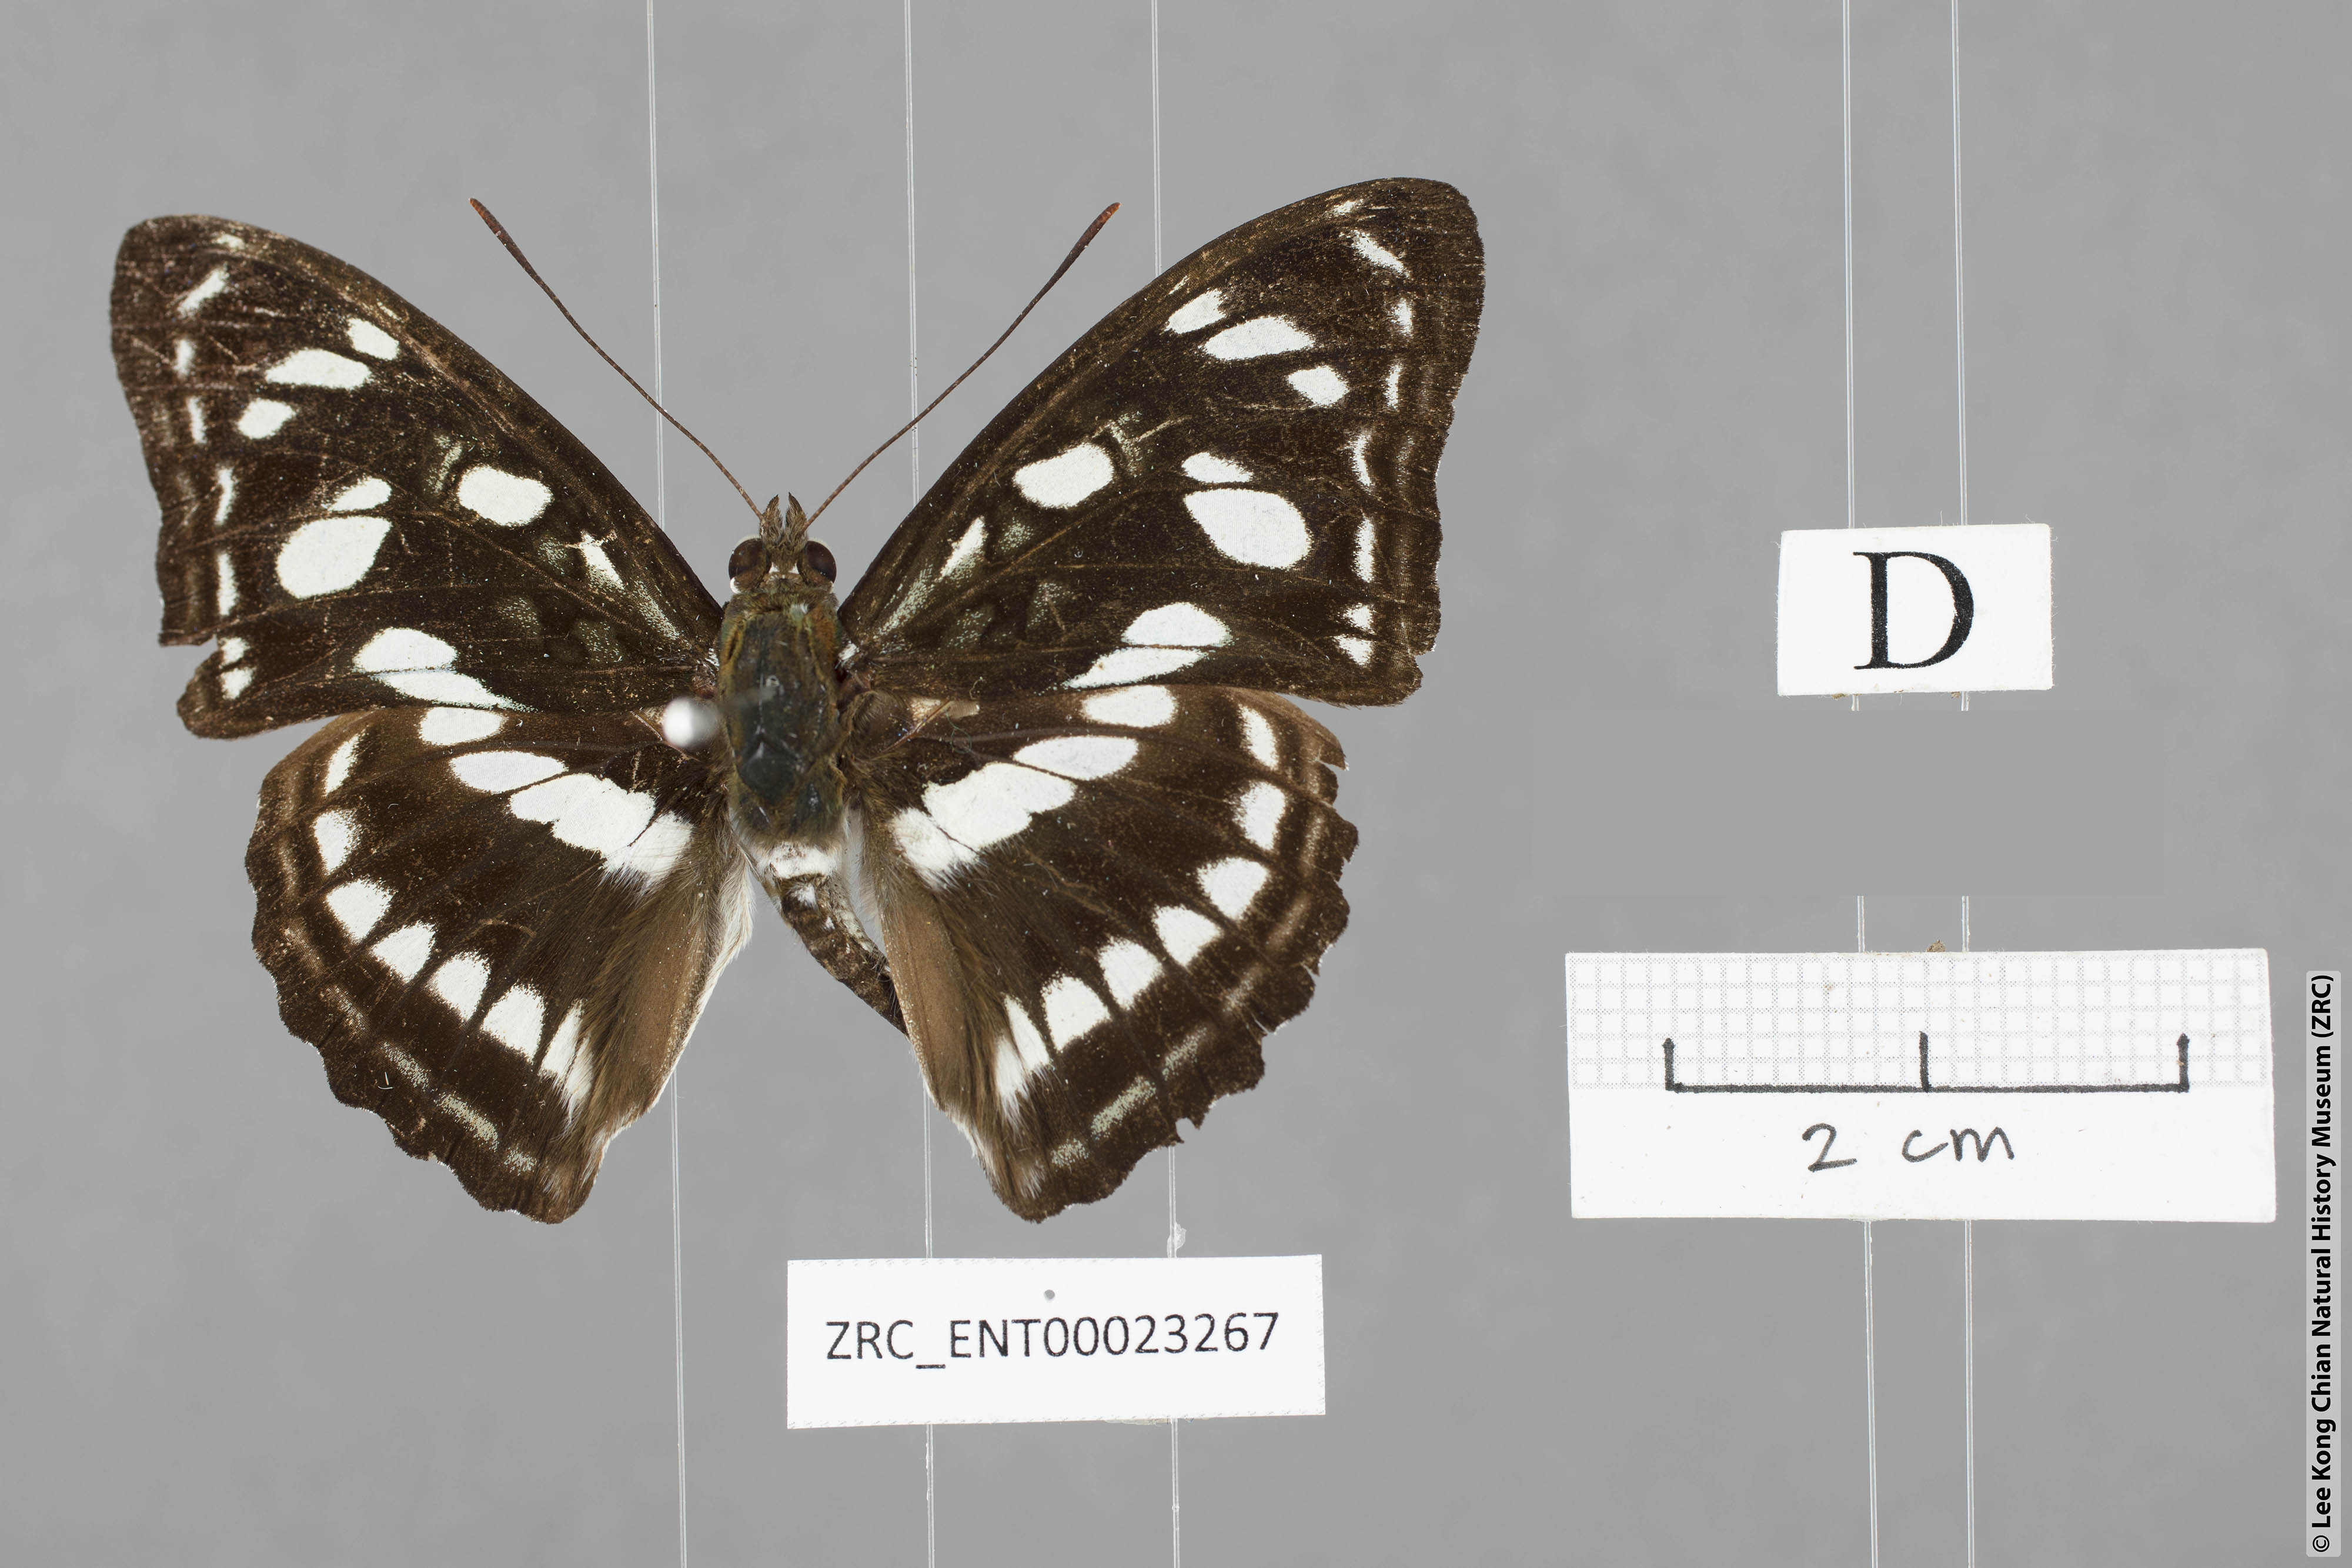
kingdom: Animalia
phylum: Arthropoda
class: Insecta
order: Lepidoptera
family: Nymphalidae
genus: Parathyma
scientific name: Parathyma ranga
